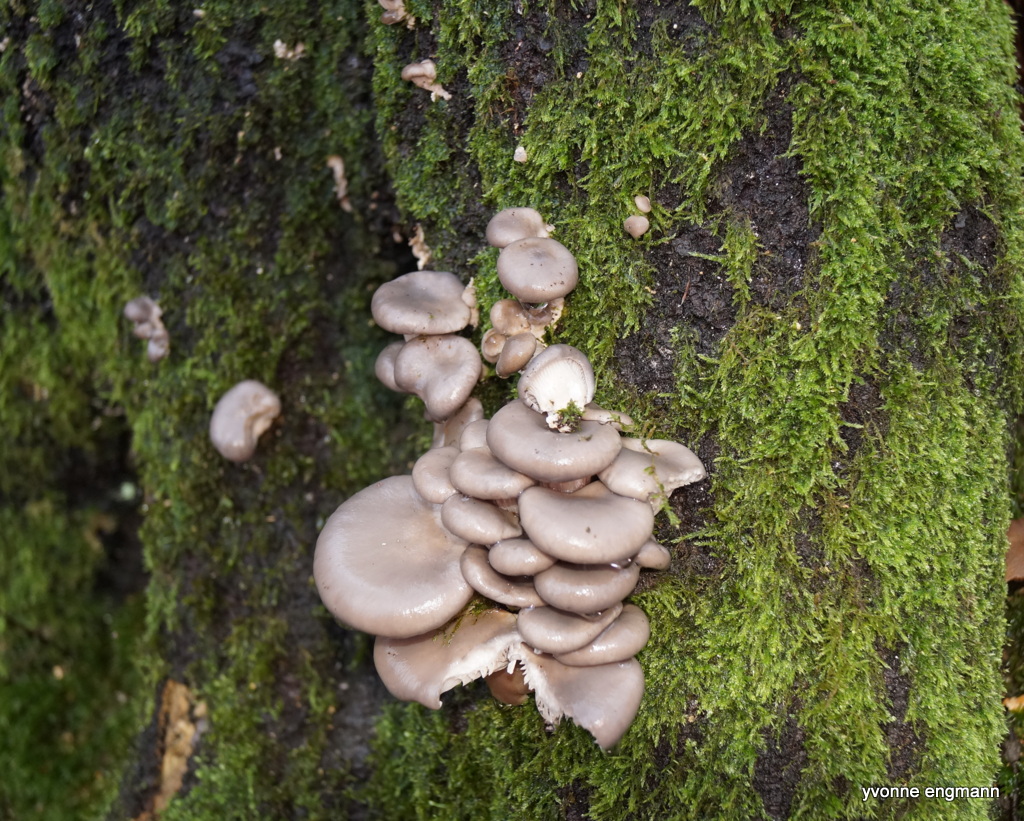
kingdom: Fungi
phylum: Basidiomycota
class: Agaricomycetes
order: Agaricales
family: Pleurotaceae
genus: Pleurotus
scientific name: Pleurotus ostreatus
